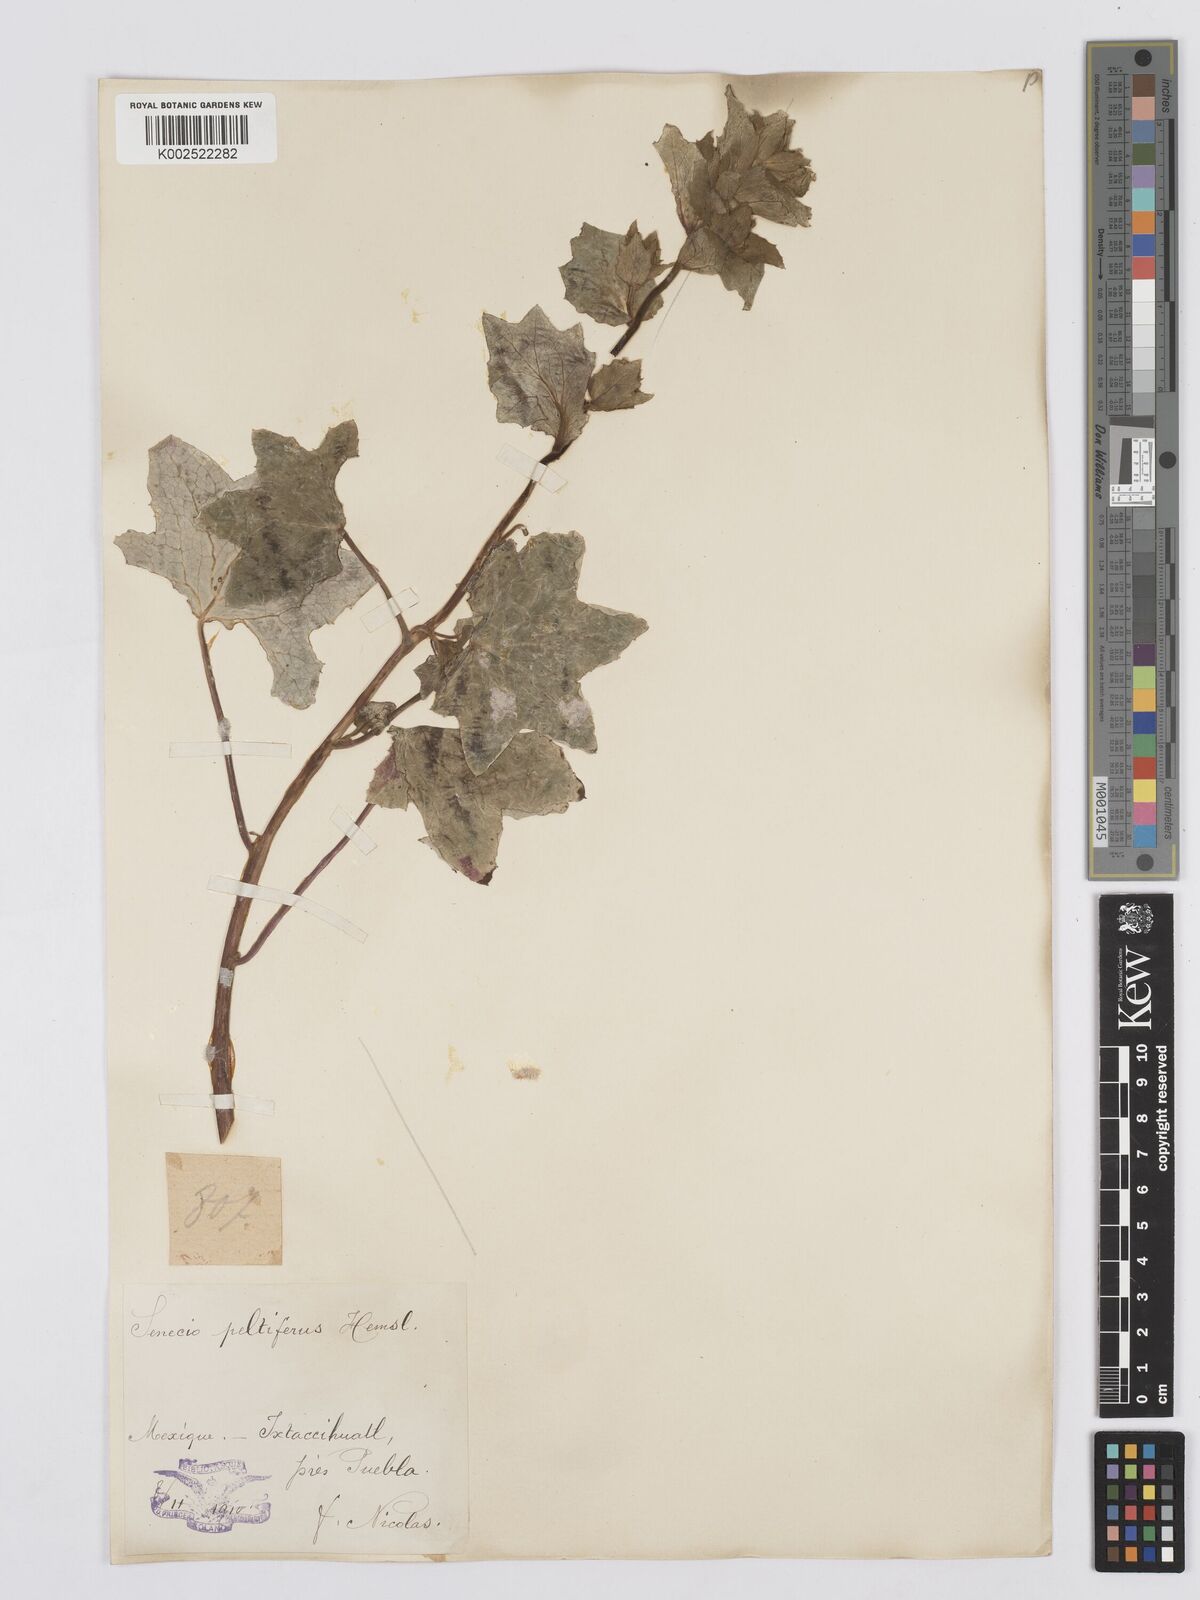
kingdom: Plantae
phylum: Tracheophyta
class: Magnoliopsida
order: Asterales
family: Asteraceae
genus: Psacalium
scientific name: Psacalium peltatum
